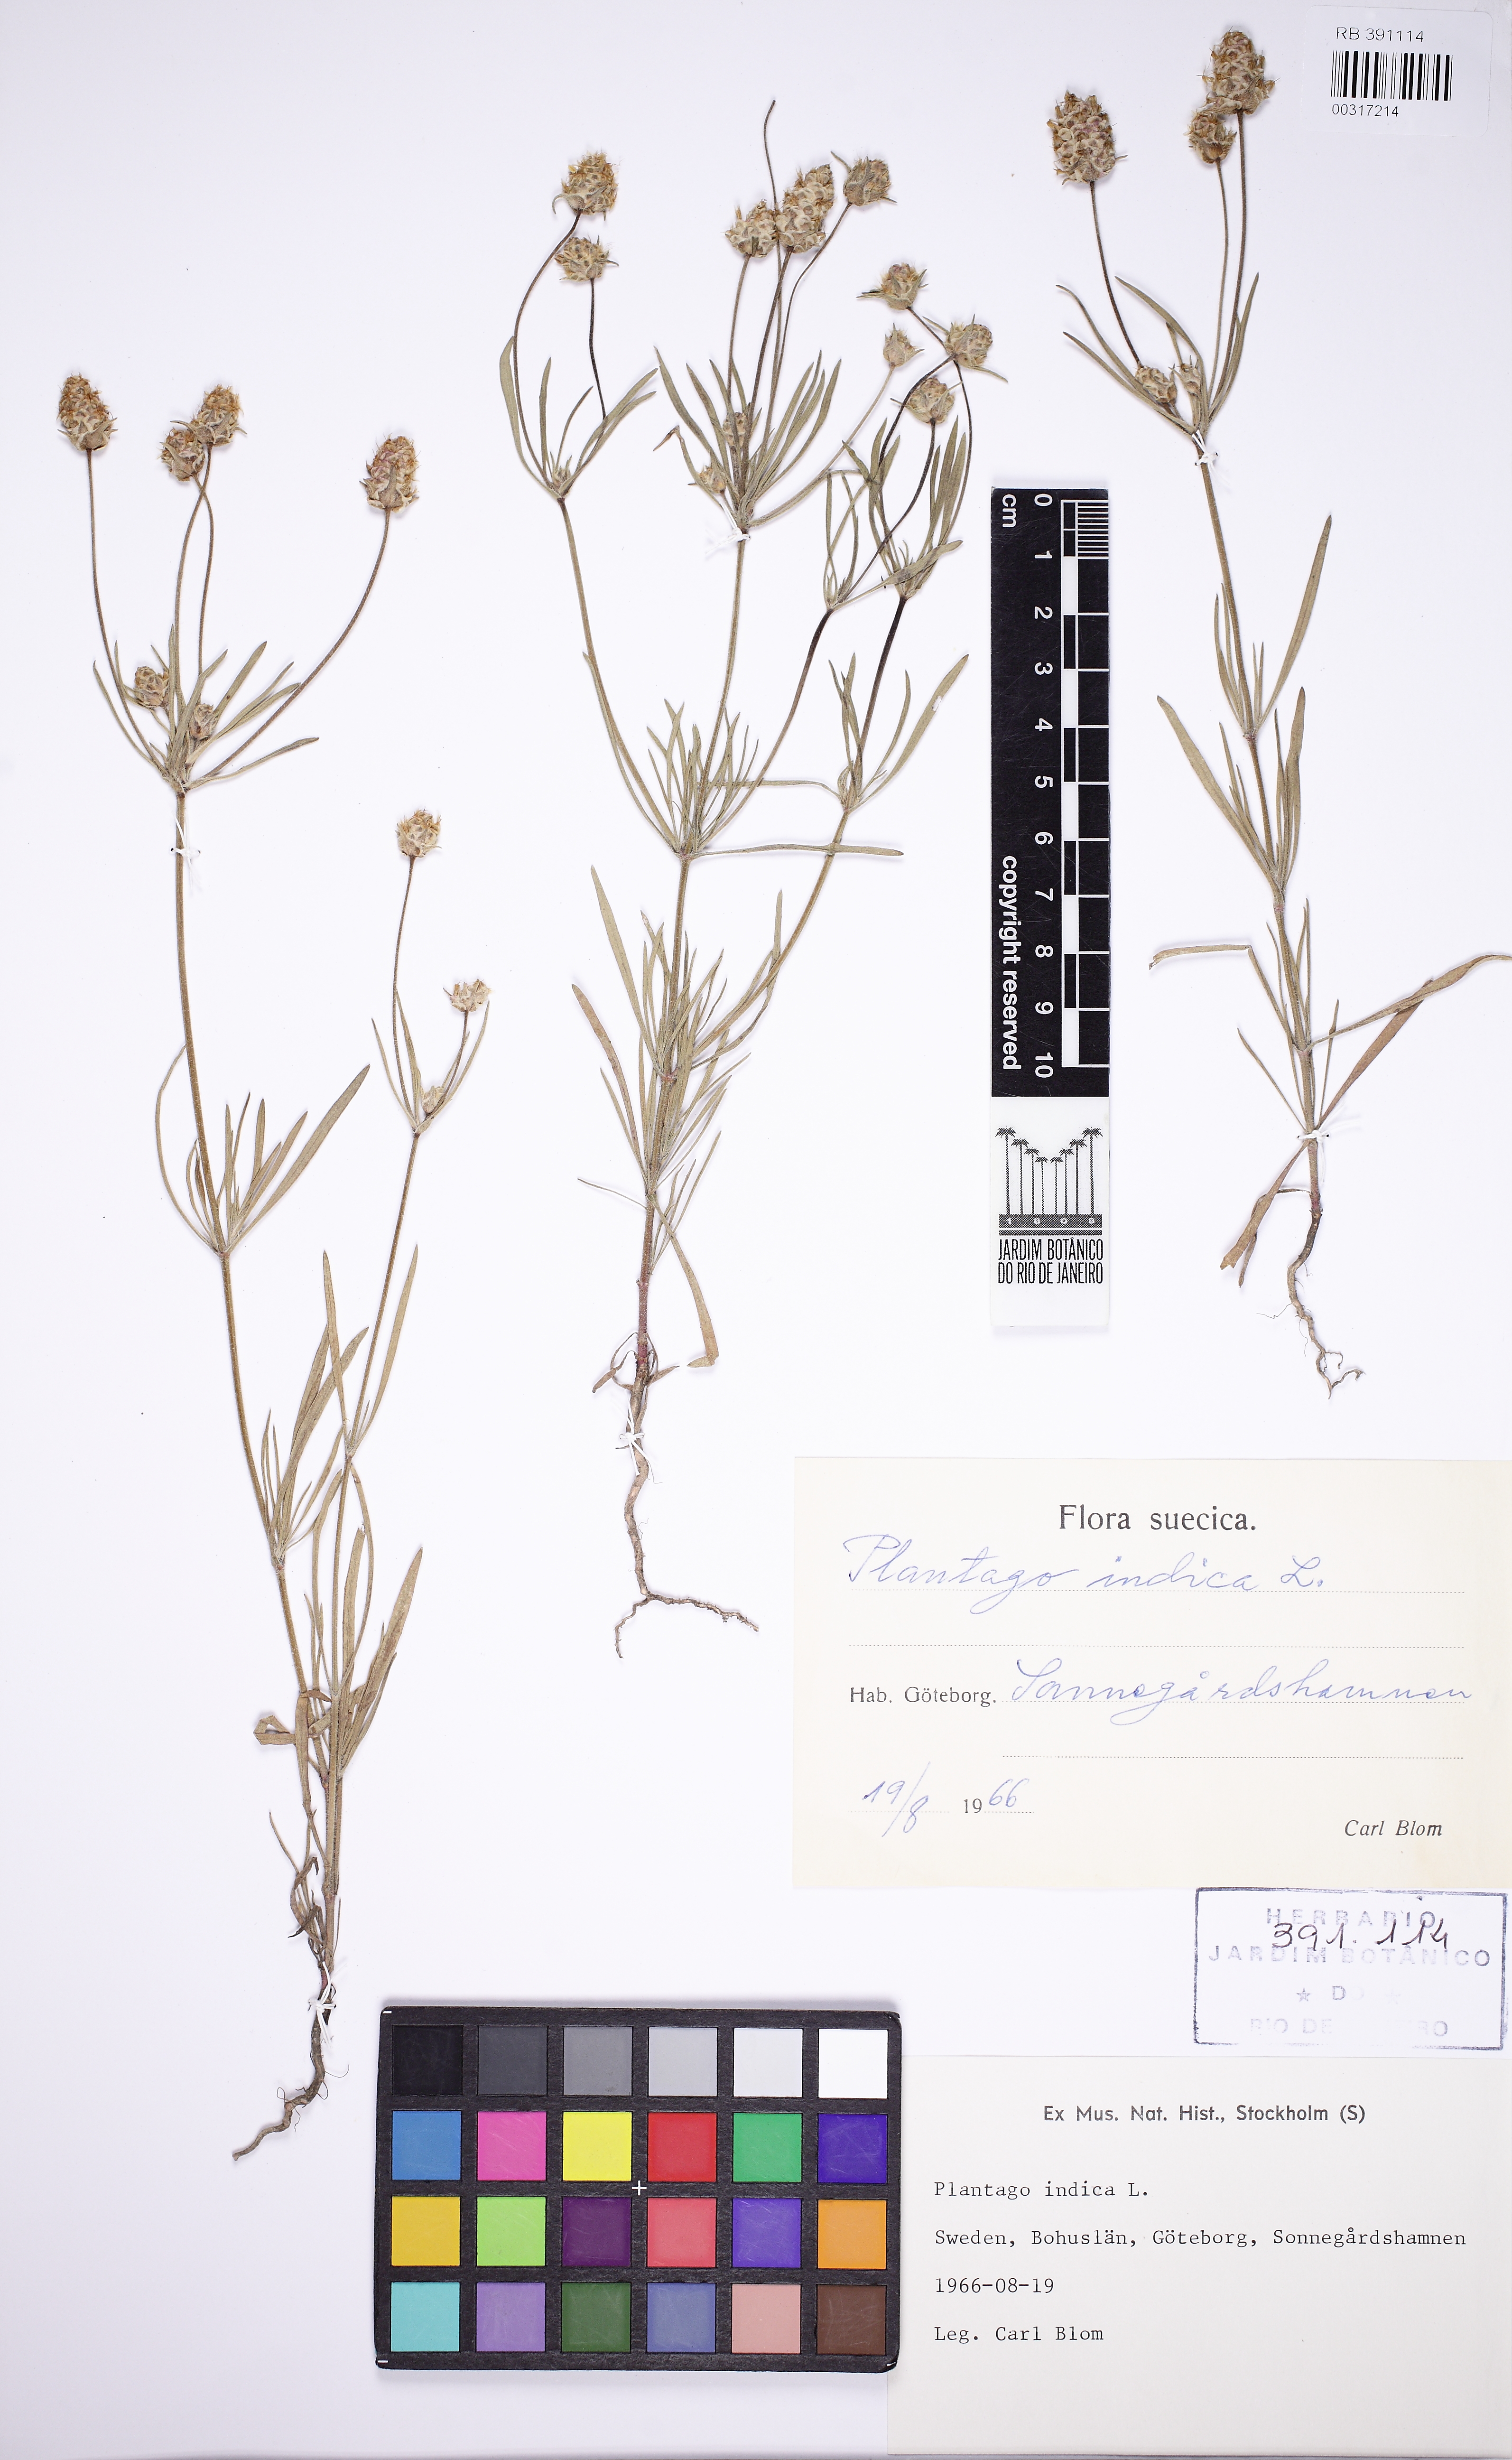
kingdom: Plantae
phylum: Tracheophyta
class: Magnoliopsida
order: Lamiales
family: Plantaginaceae
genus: Plantago
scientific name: Plantago arenaria
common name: Branched plantain
